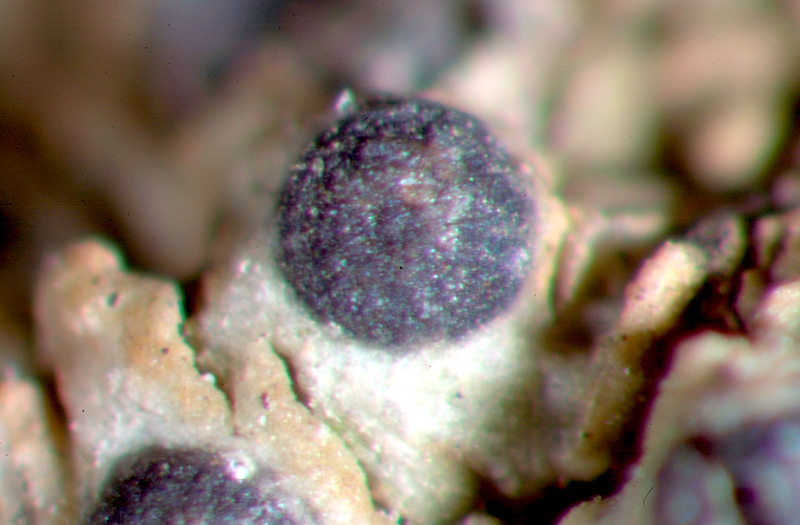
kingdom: Fungi
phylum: Ascomycota
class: Lecanoromycetes
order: Teloschistales
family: Teloschistaceae
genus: Caloplaca
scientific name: Caloplaca
